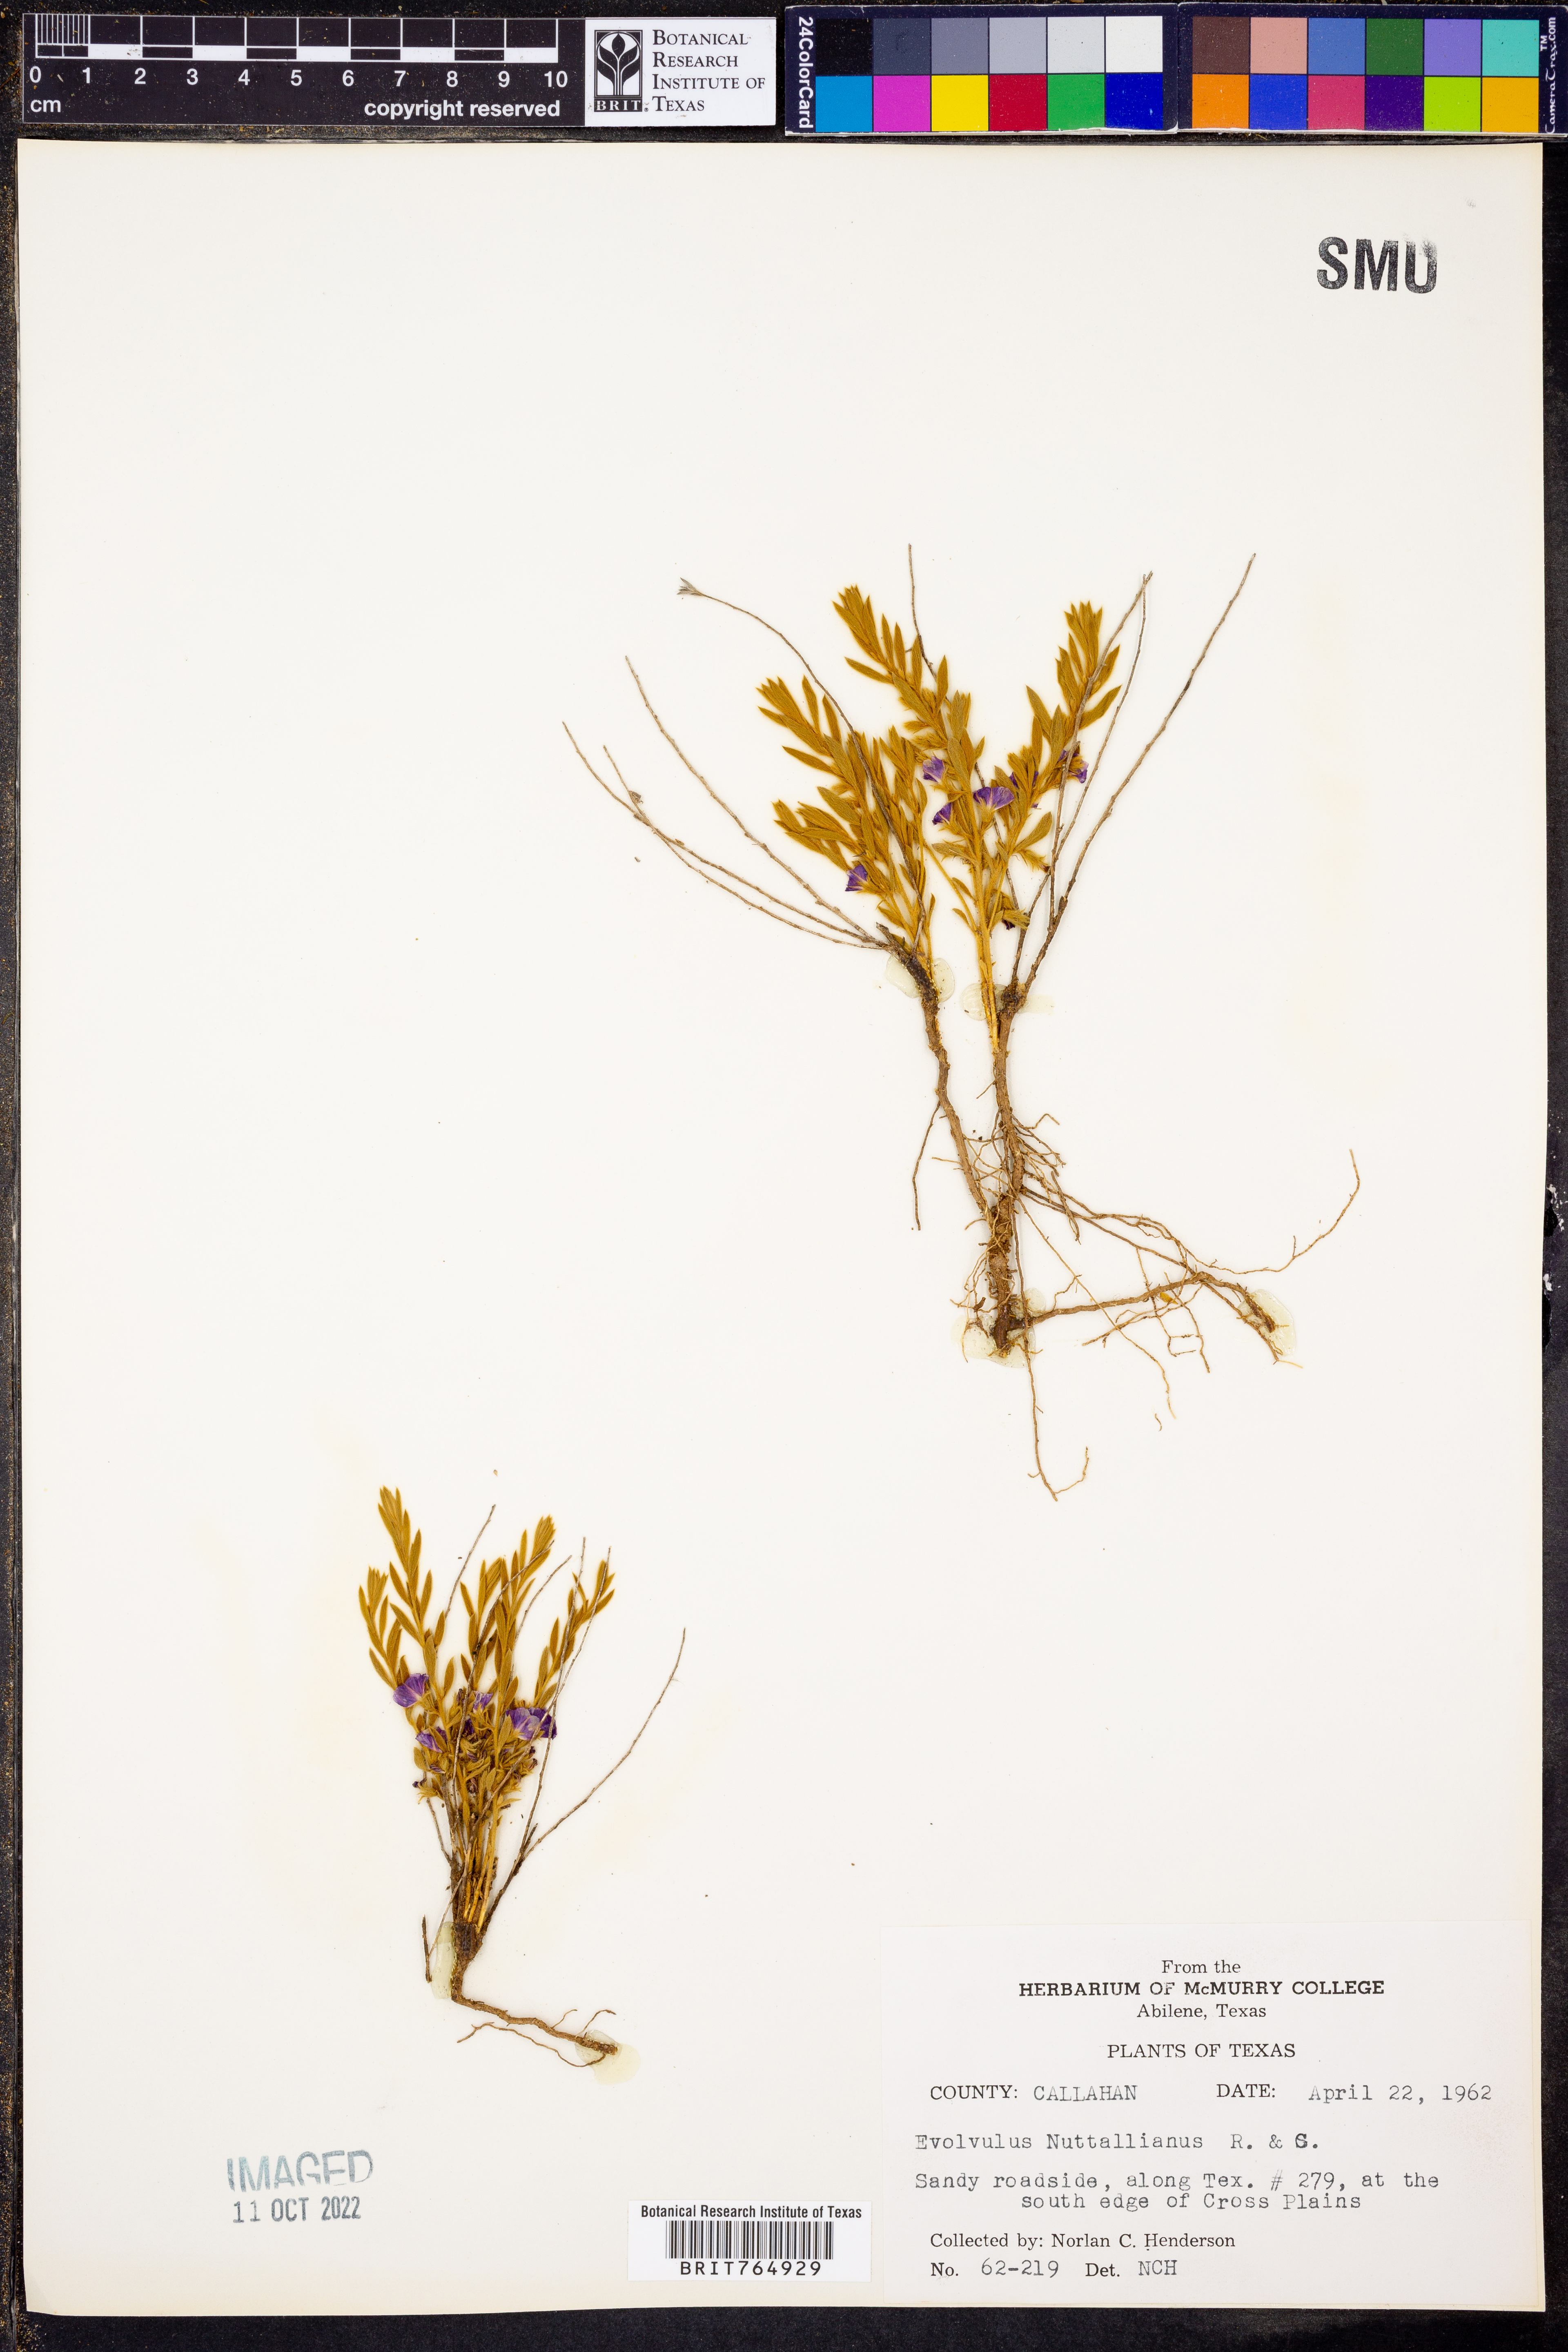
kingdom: Plantae
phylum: Tracheophyta
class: Magnoliopsida
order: Solanales
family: Convolvulaceae
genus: Evolvulus
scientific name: Evolvulus nuttallianus
